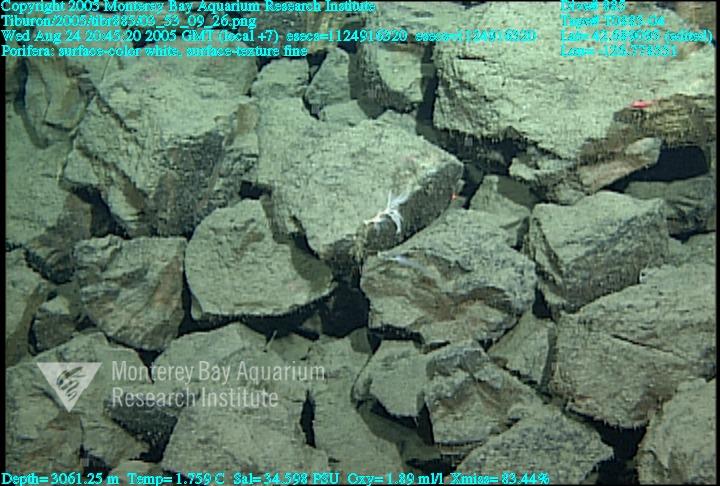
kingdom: Animalia
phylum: Porifera
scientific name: Porifera
